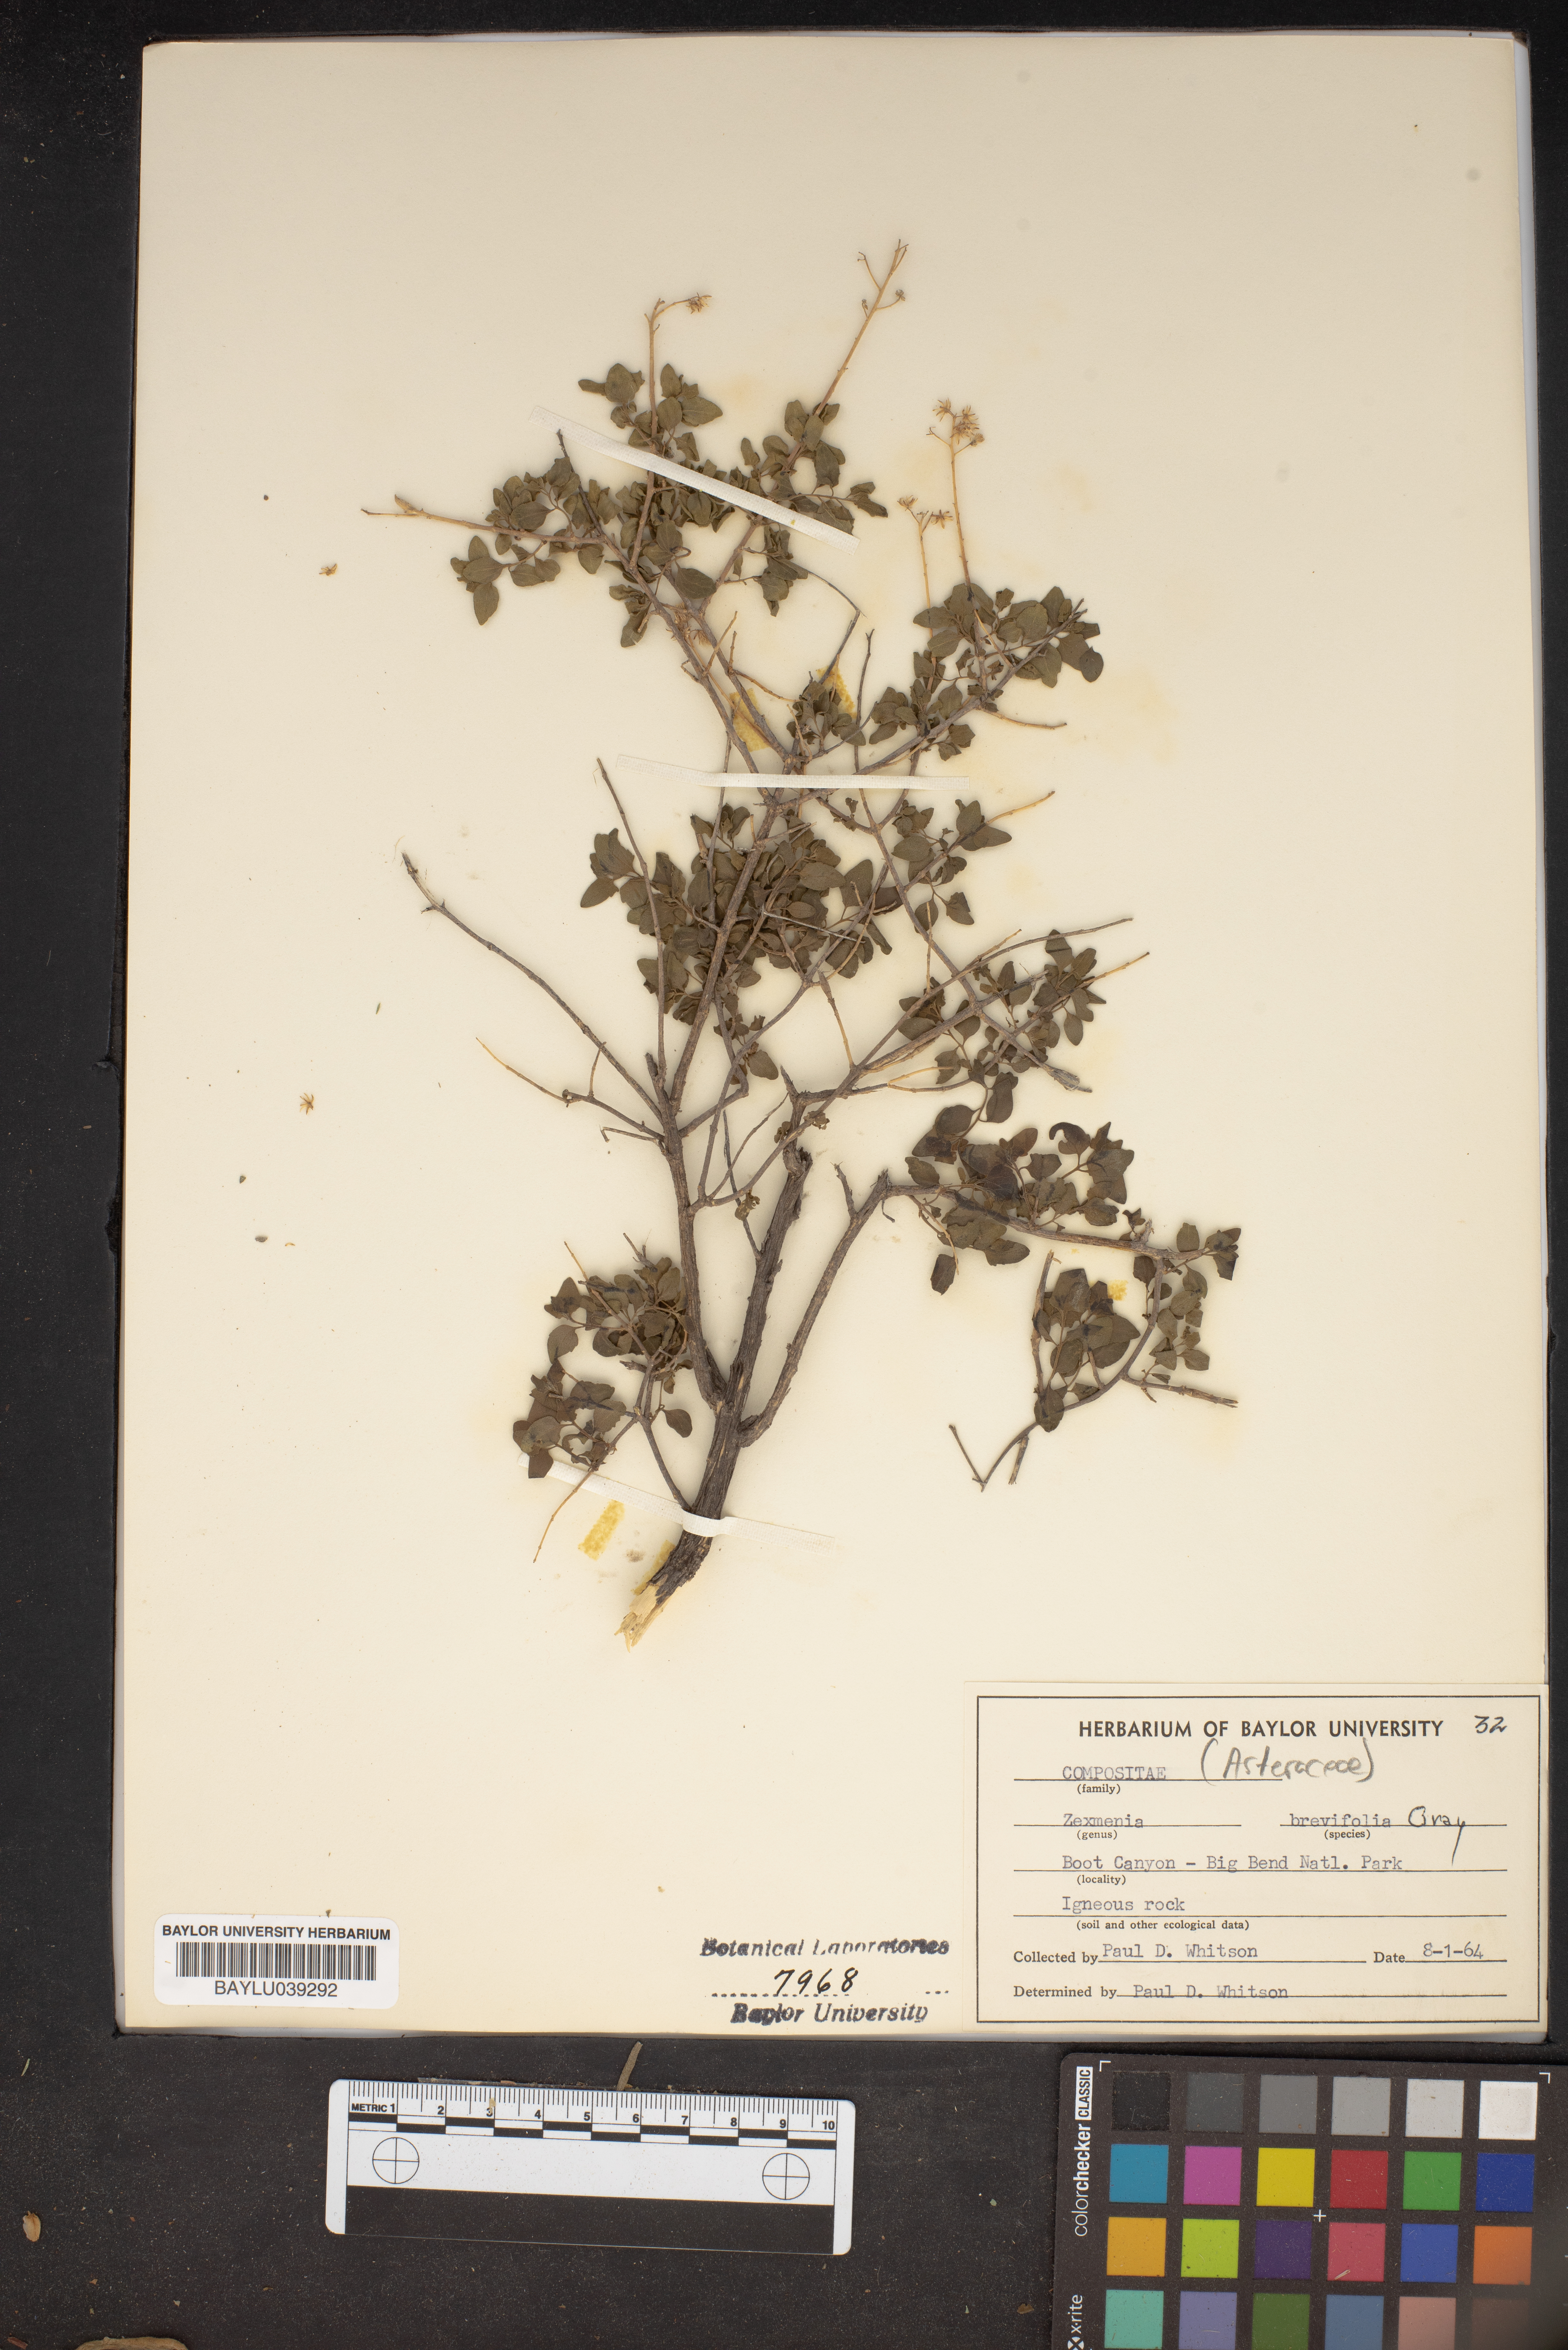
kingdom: Plantae
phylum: Tracheophyta
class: Magnoliopsida
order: Asterales
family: Asteraceae
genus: Jefea
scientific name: Jefea brevifolia
